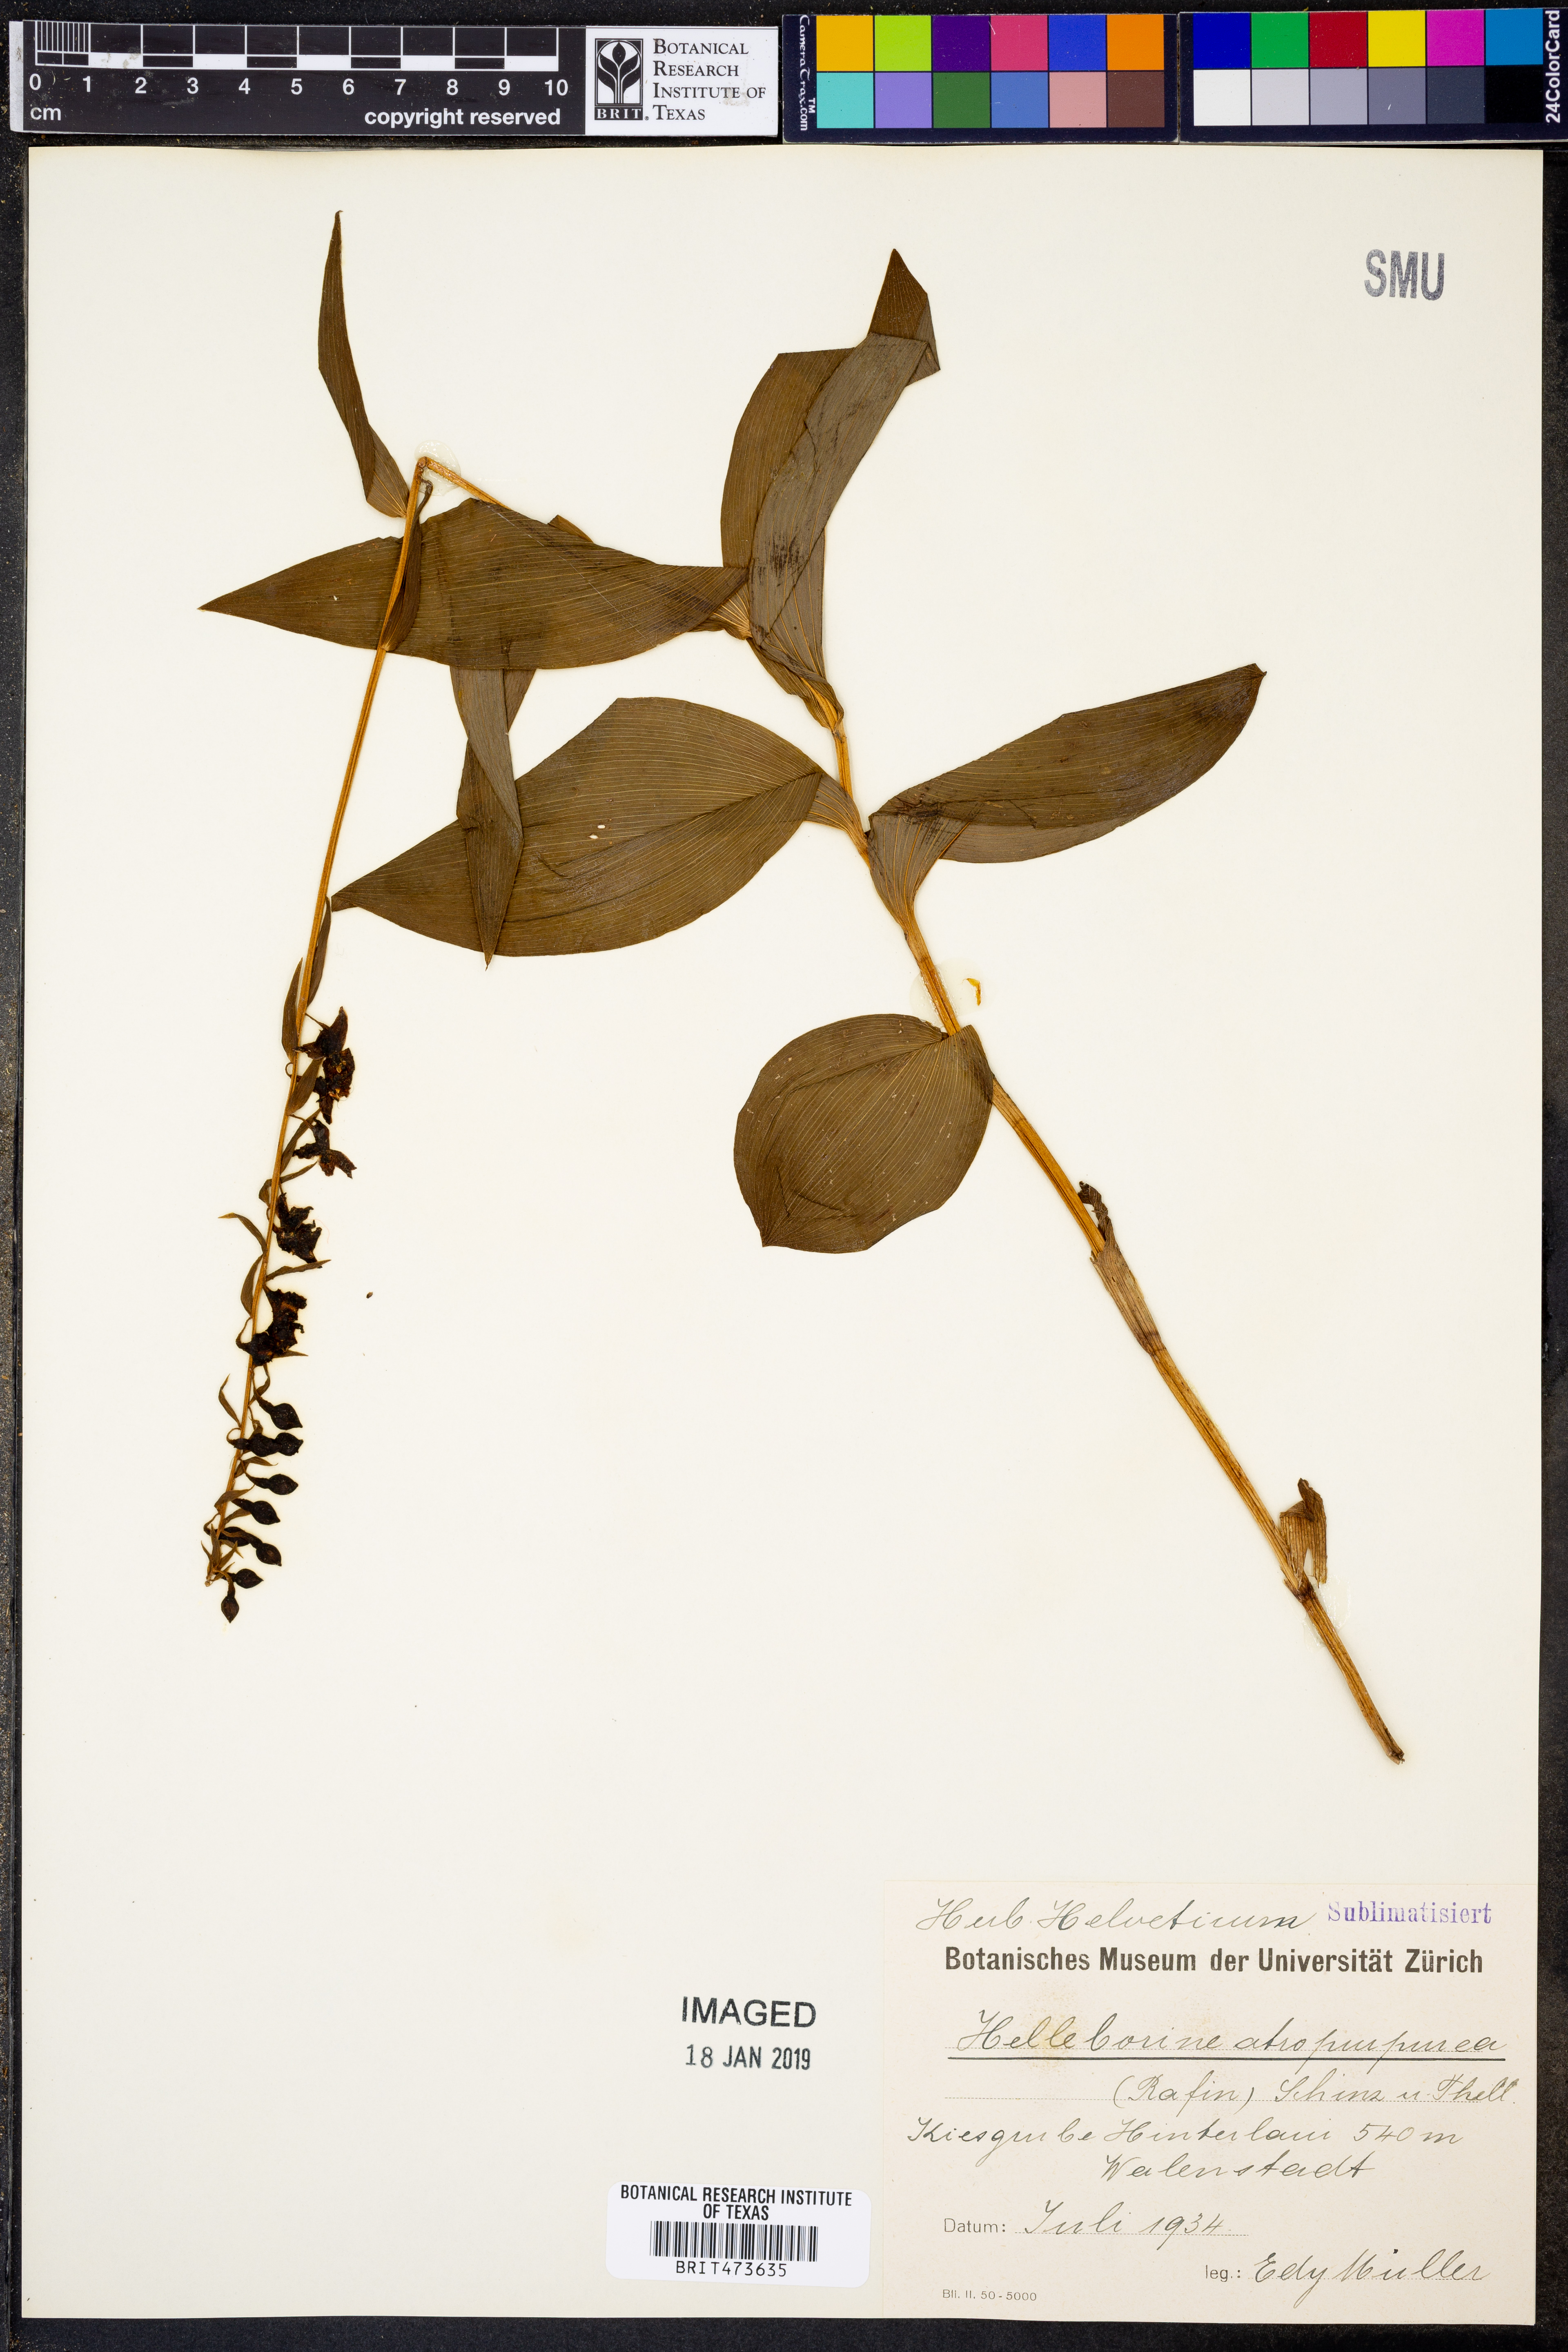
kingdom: Plantae
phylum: Tracheophyta
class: Liliopsida
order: Asparagales
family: Orchidaceae
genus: Epipactis
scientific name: Epipactis atrorubens
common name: Dark-red helleborine
